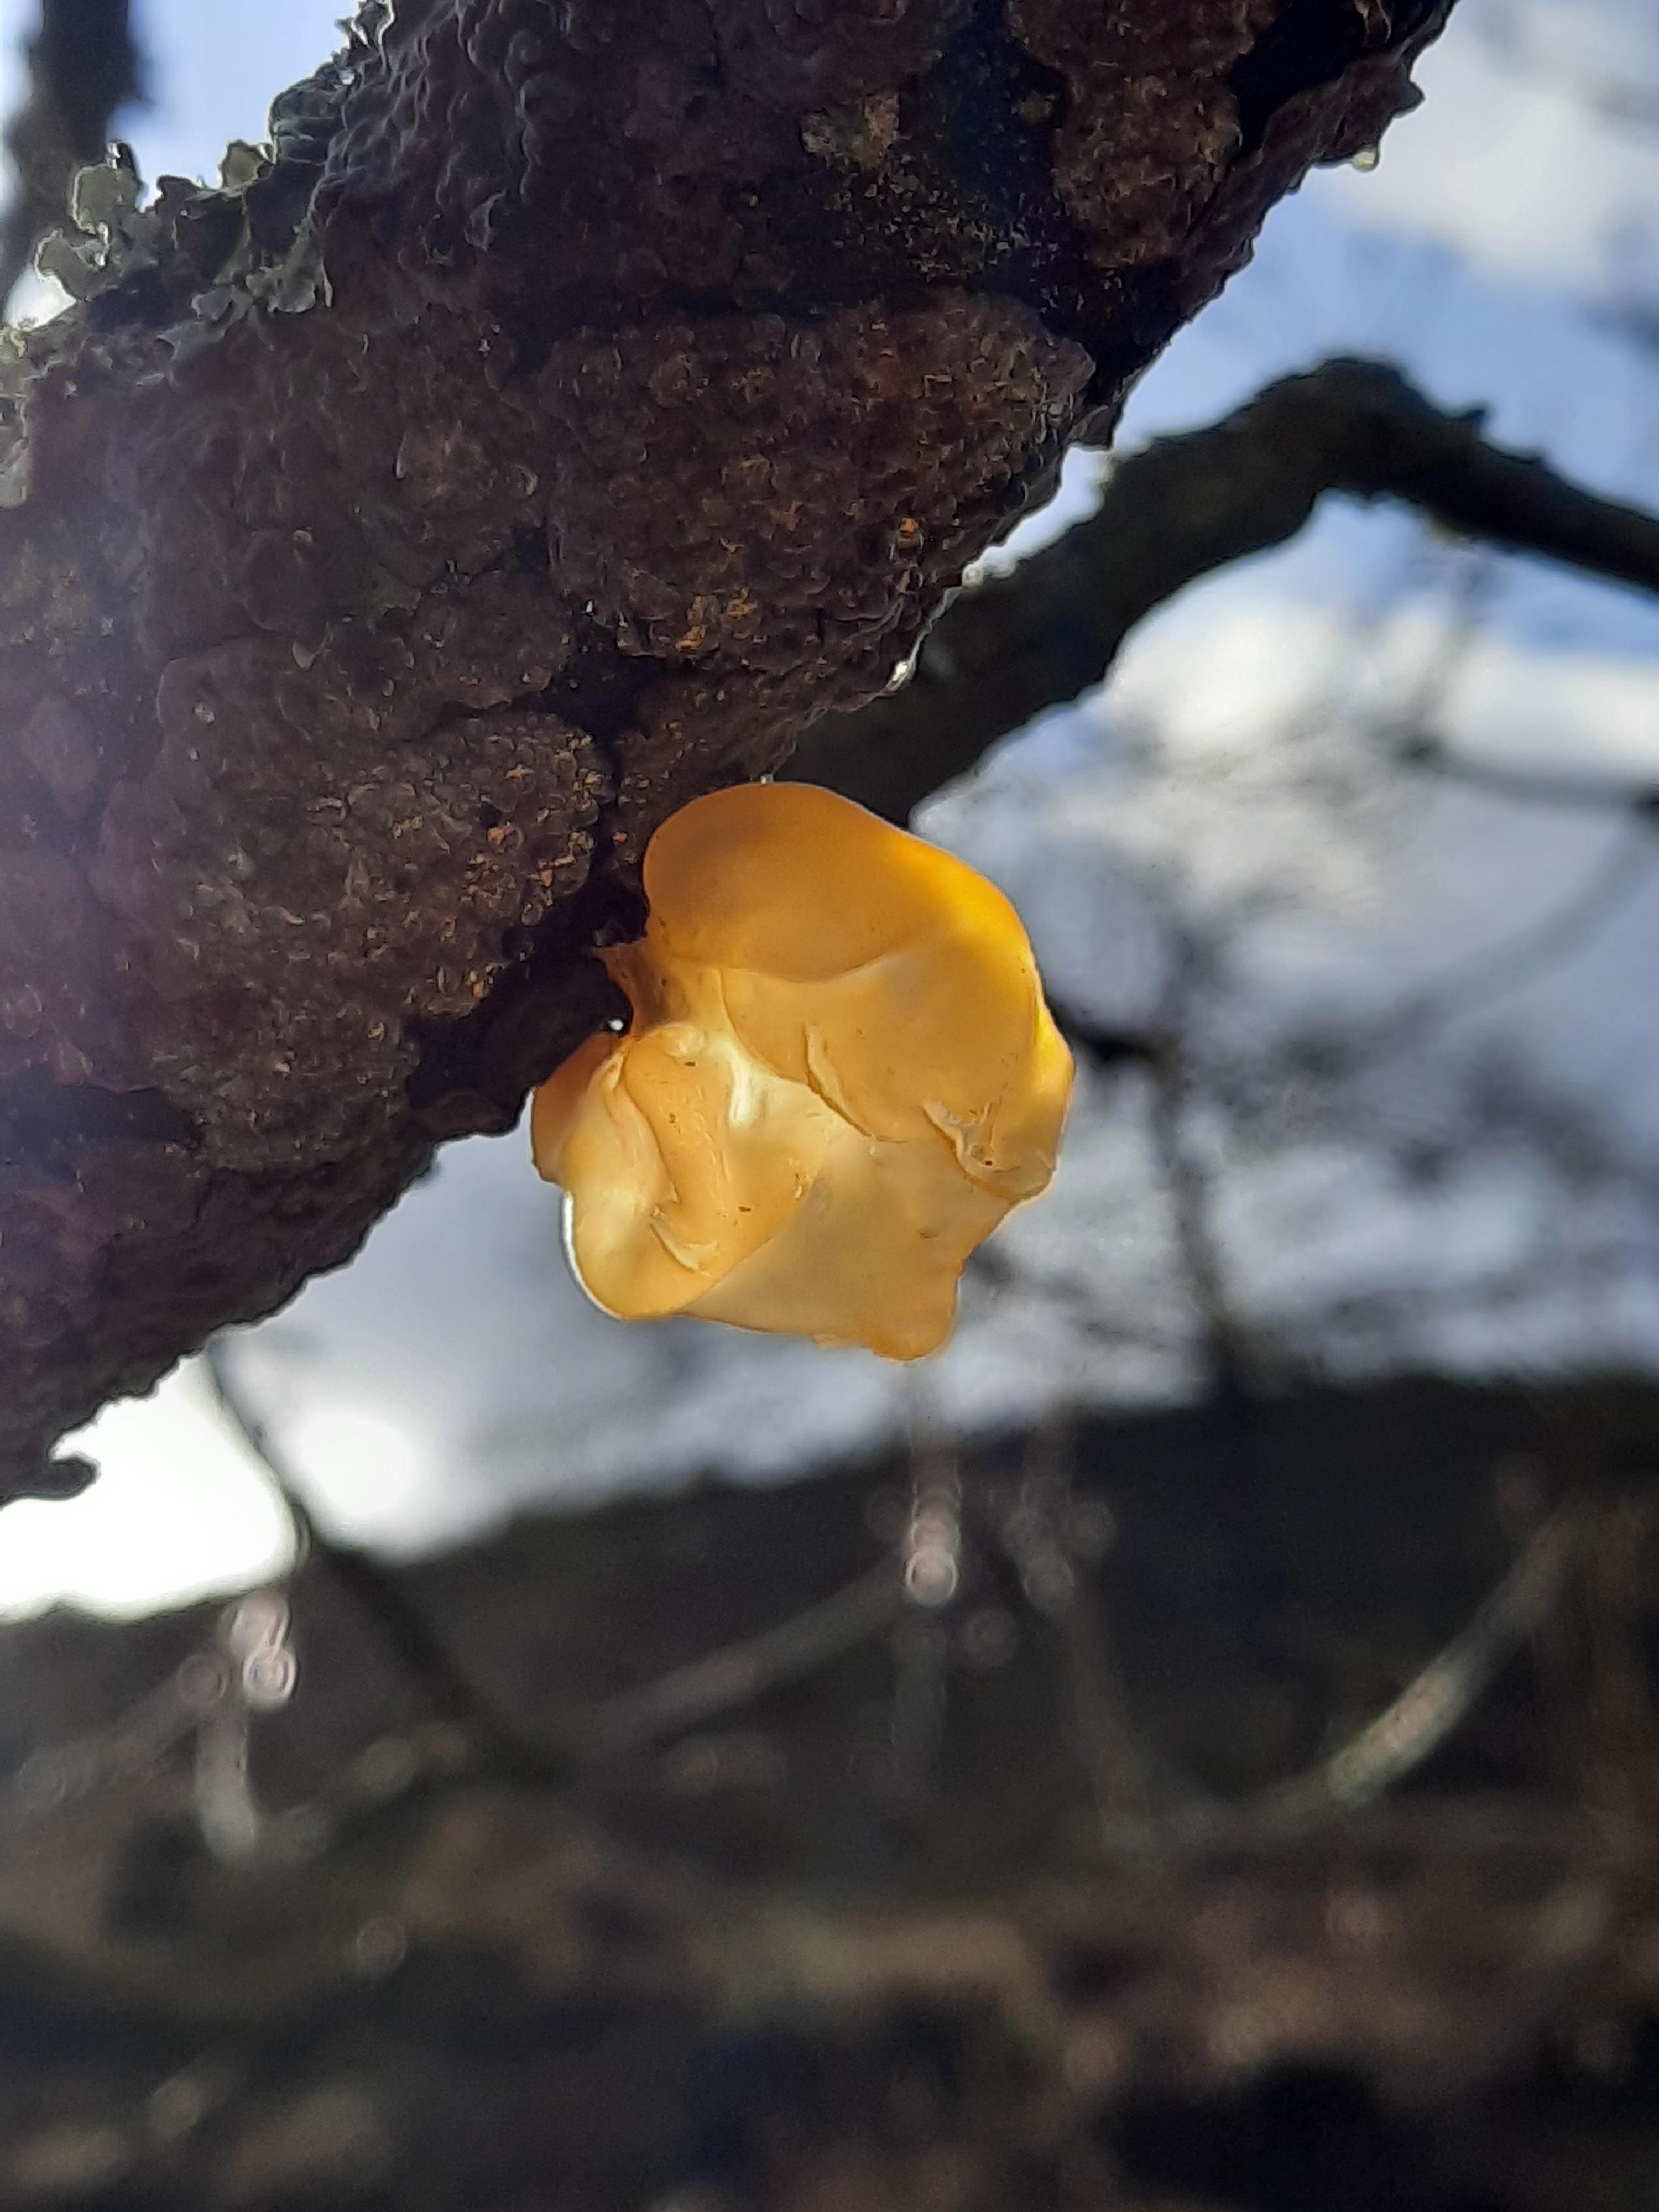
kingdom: Fungi
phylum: Basidiomycota
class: Tremellomycetes
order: Tremellales
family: Tremellaceae
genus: Tremella
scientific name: Tremella mesenterica
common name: gul bævresvamp
